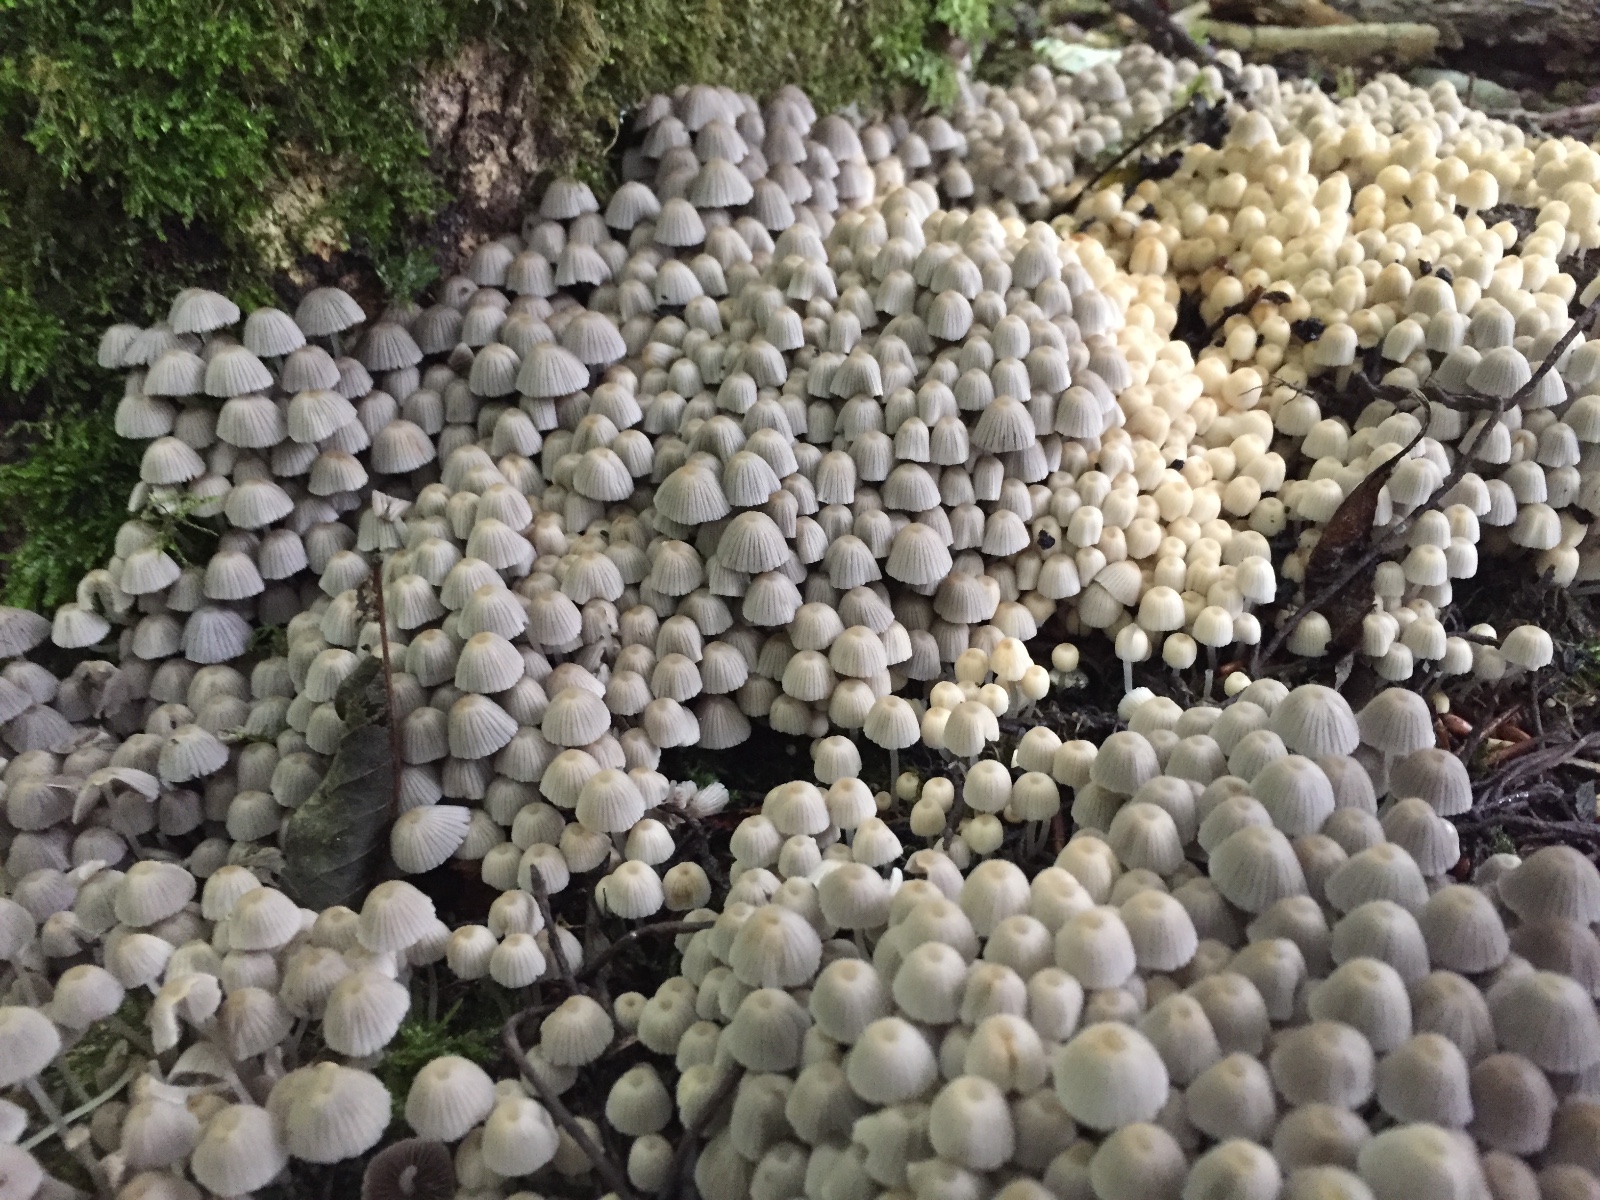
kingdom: Fungi
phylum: Basidiomycota
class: Agaricomycetes
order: Agaricales
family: Psathyrellaceae
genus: Coprinellus
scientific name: Coprinellus disseminatus
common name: bredsået blækhat
